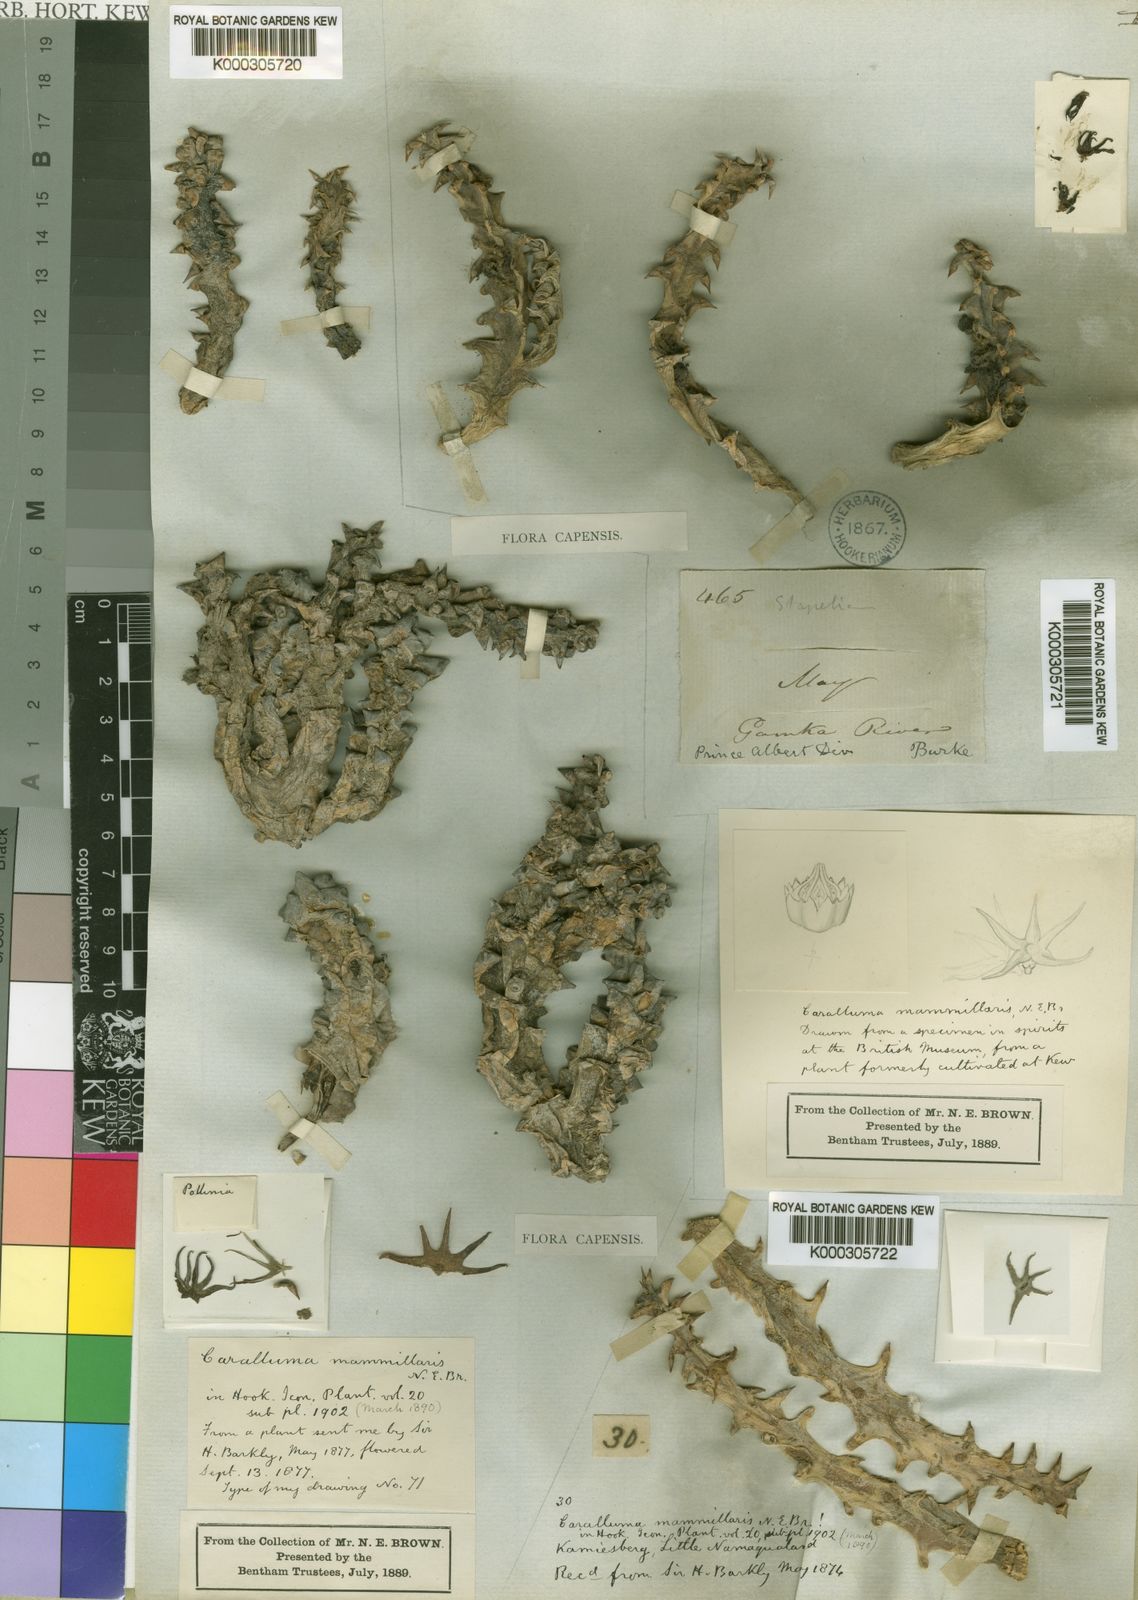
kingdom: Plantae
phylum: Tracheophyta
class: Magnoliopsida
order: Gentianales
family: Apocynaceae
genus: Ceropegia
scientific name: Ceropegia mammillaris
